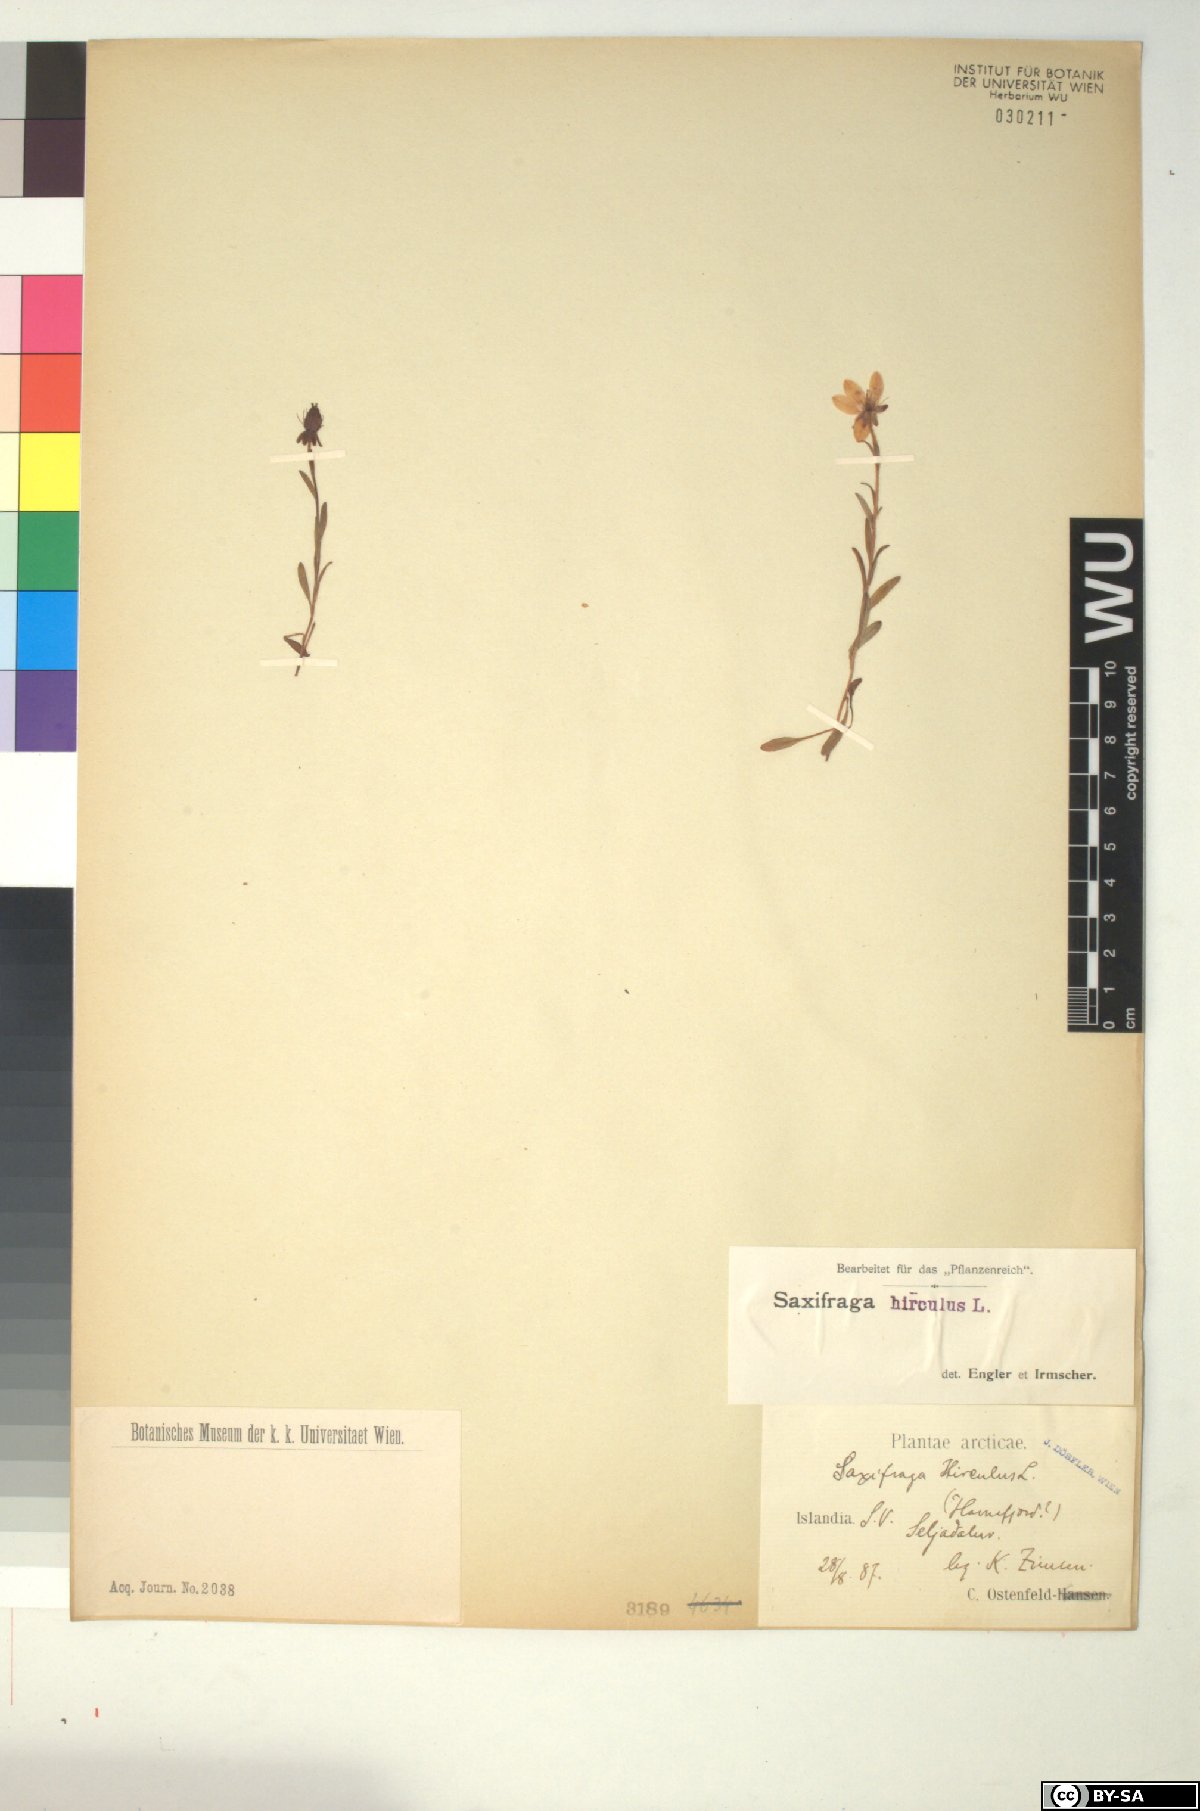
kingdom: Plantae
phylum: Tracheophyta
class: Magnoliopsida
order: Saxifragales
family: Saxifragaceae
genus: Saxifraga
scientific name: Saxifraga hirculus
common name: Yellow marsh saxifrage
